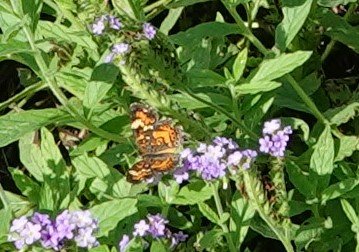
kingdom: Animalia
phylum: Arthropoda
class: Insecta
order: Lepidoptera
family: Nymphalidae
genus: Phyciodes
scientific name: Phyciodes phaon
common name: Phaon Crescent
